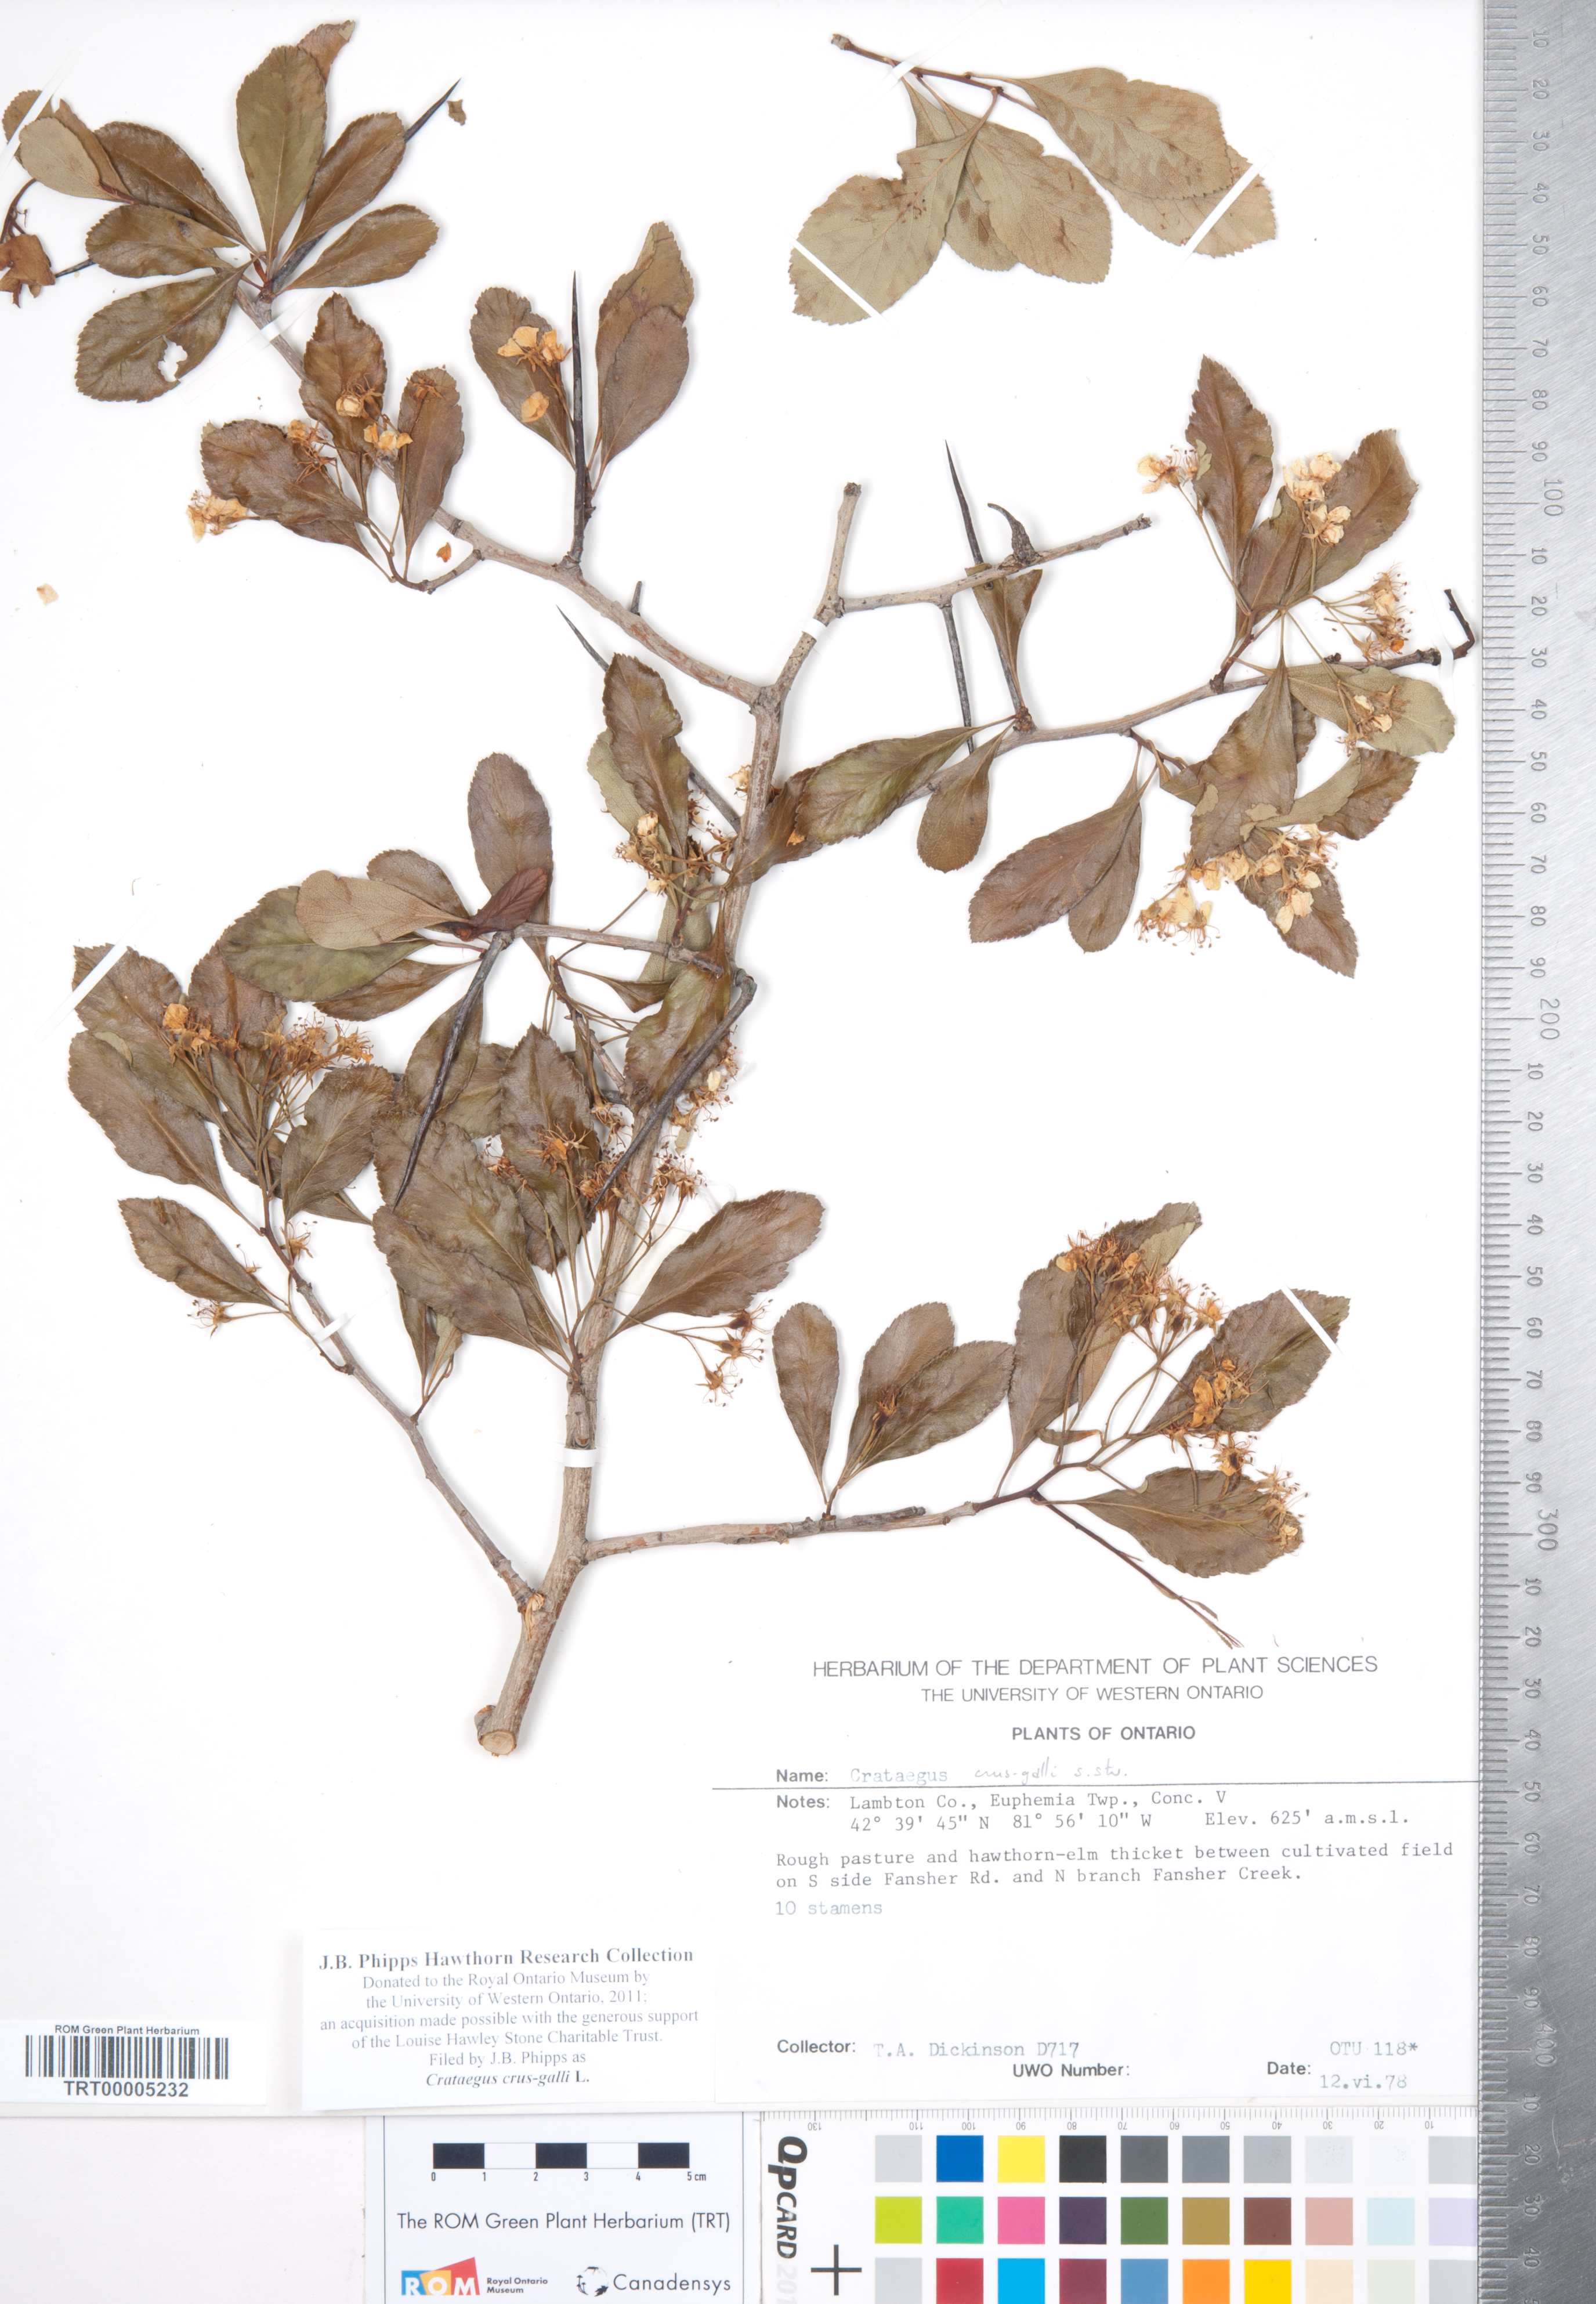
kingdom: Plantae
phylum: Tracheophyta
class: Magnoliopsida
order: Rosales
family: Rosaceae
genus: Crataegus
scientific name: Crataegus crus-galli
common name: Cockspurthorn
